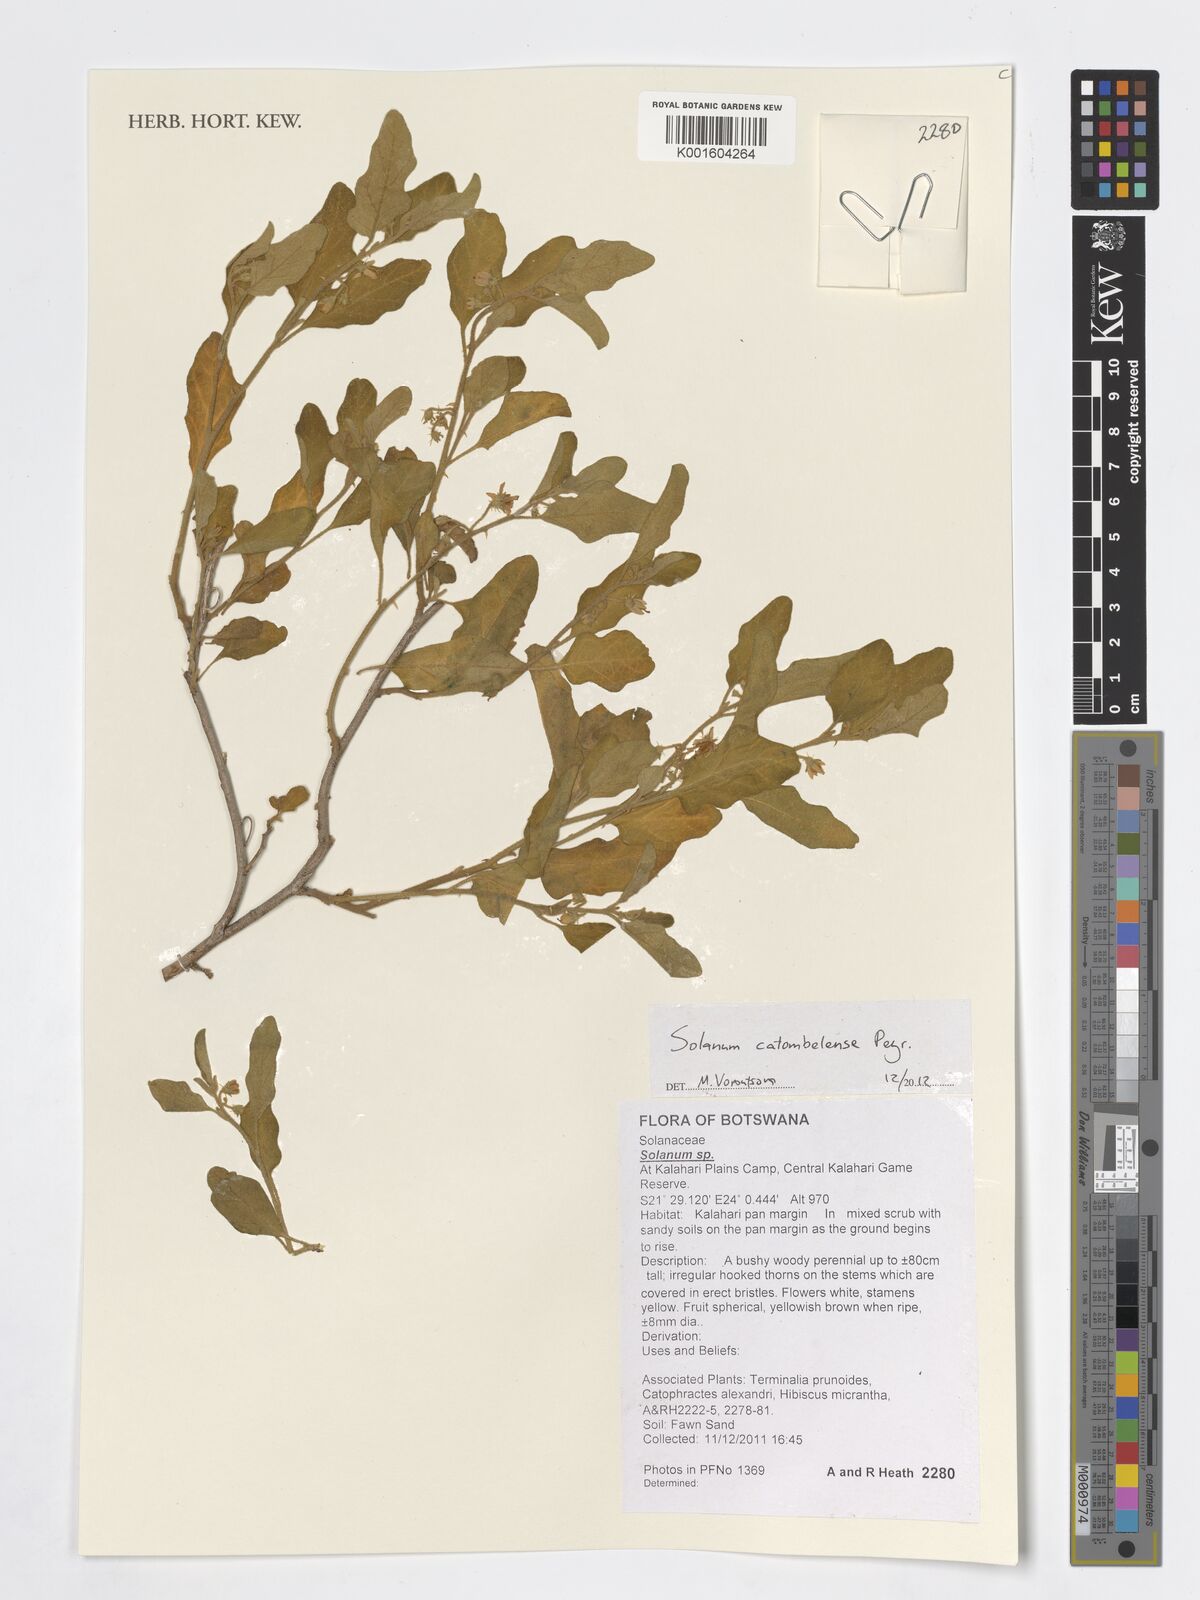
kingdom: Plantae
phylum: Tracheophyta
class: Magnoliopsida
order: Solanales
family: Solanaceae
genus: Solanum
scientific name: Solanum catombelense
